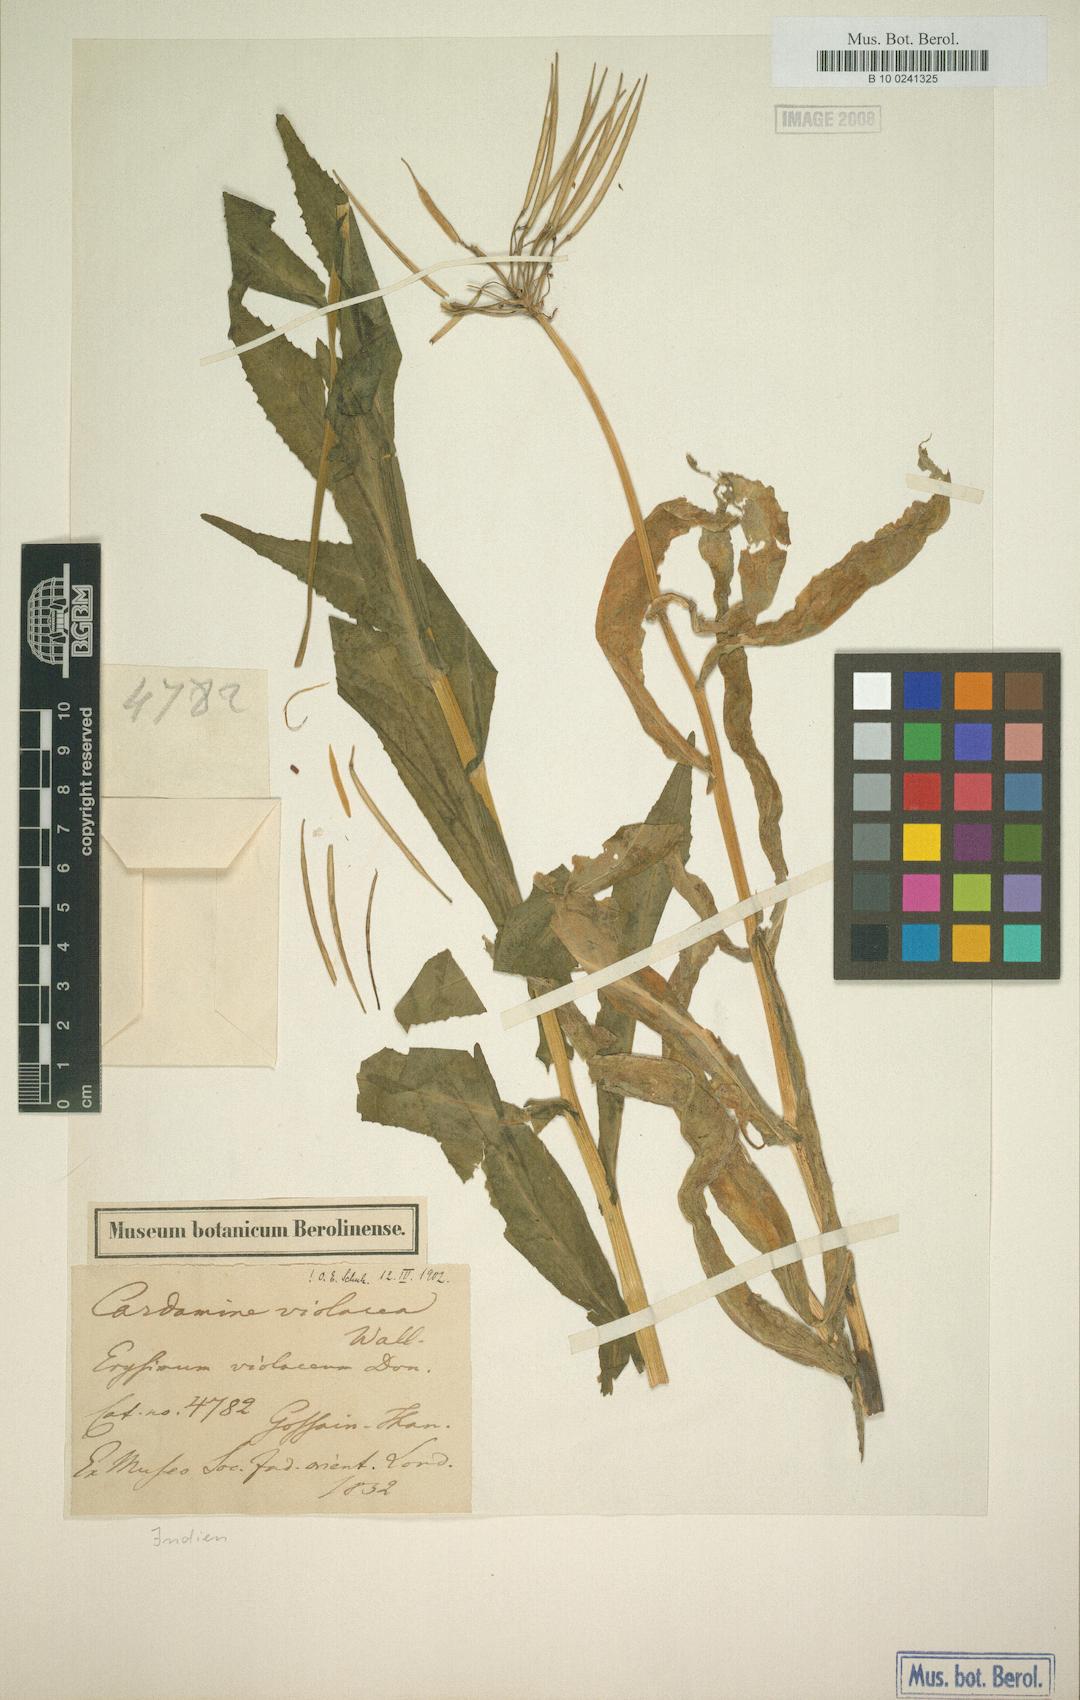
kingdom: Plantae
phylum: Tracheophyta
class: Magnoliopsida
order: Brassicales
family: Brassicaceae
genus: Cardamine
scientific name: Cardamine violacea
